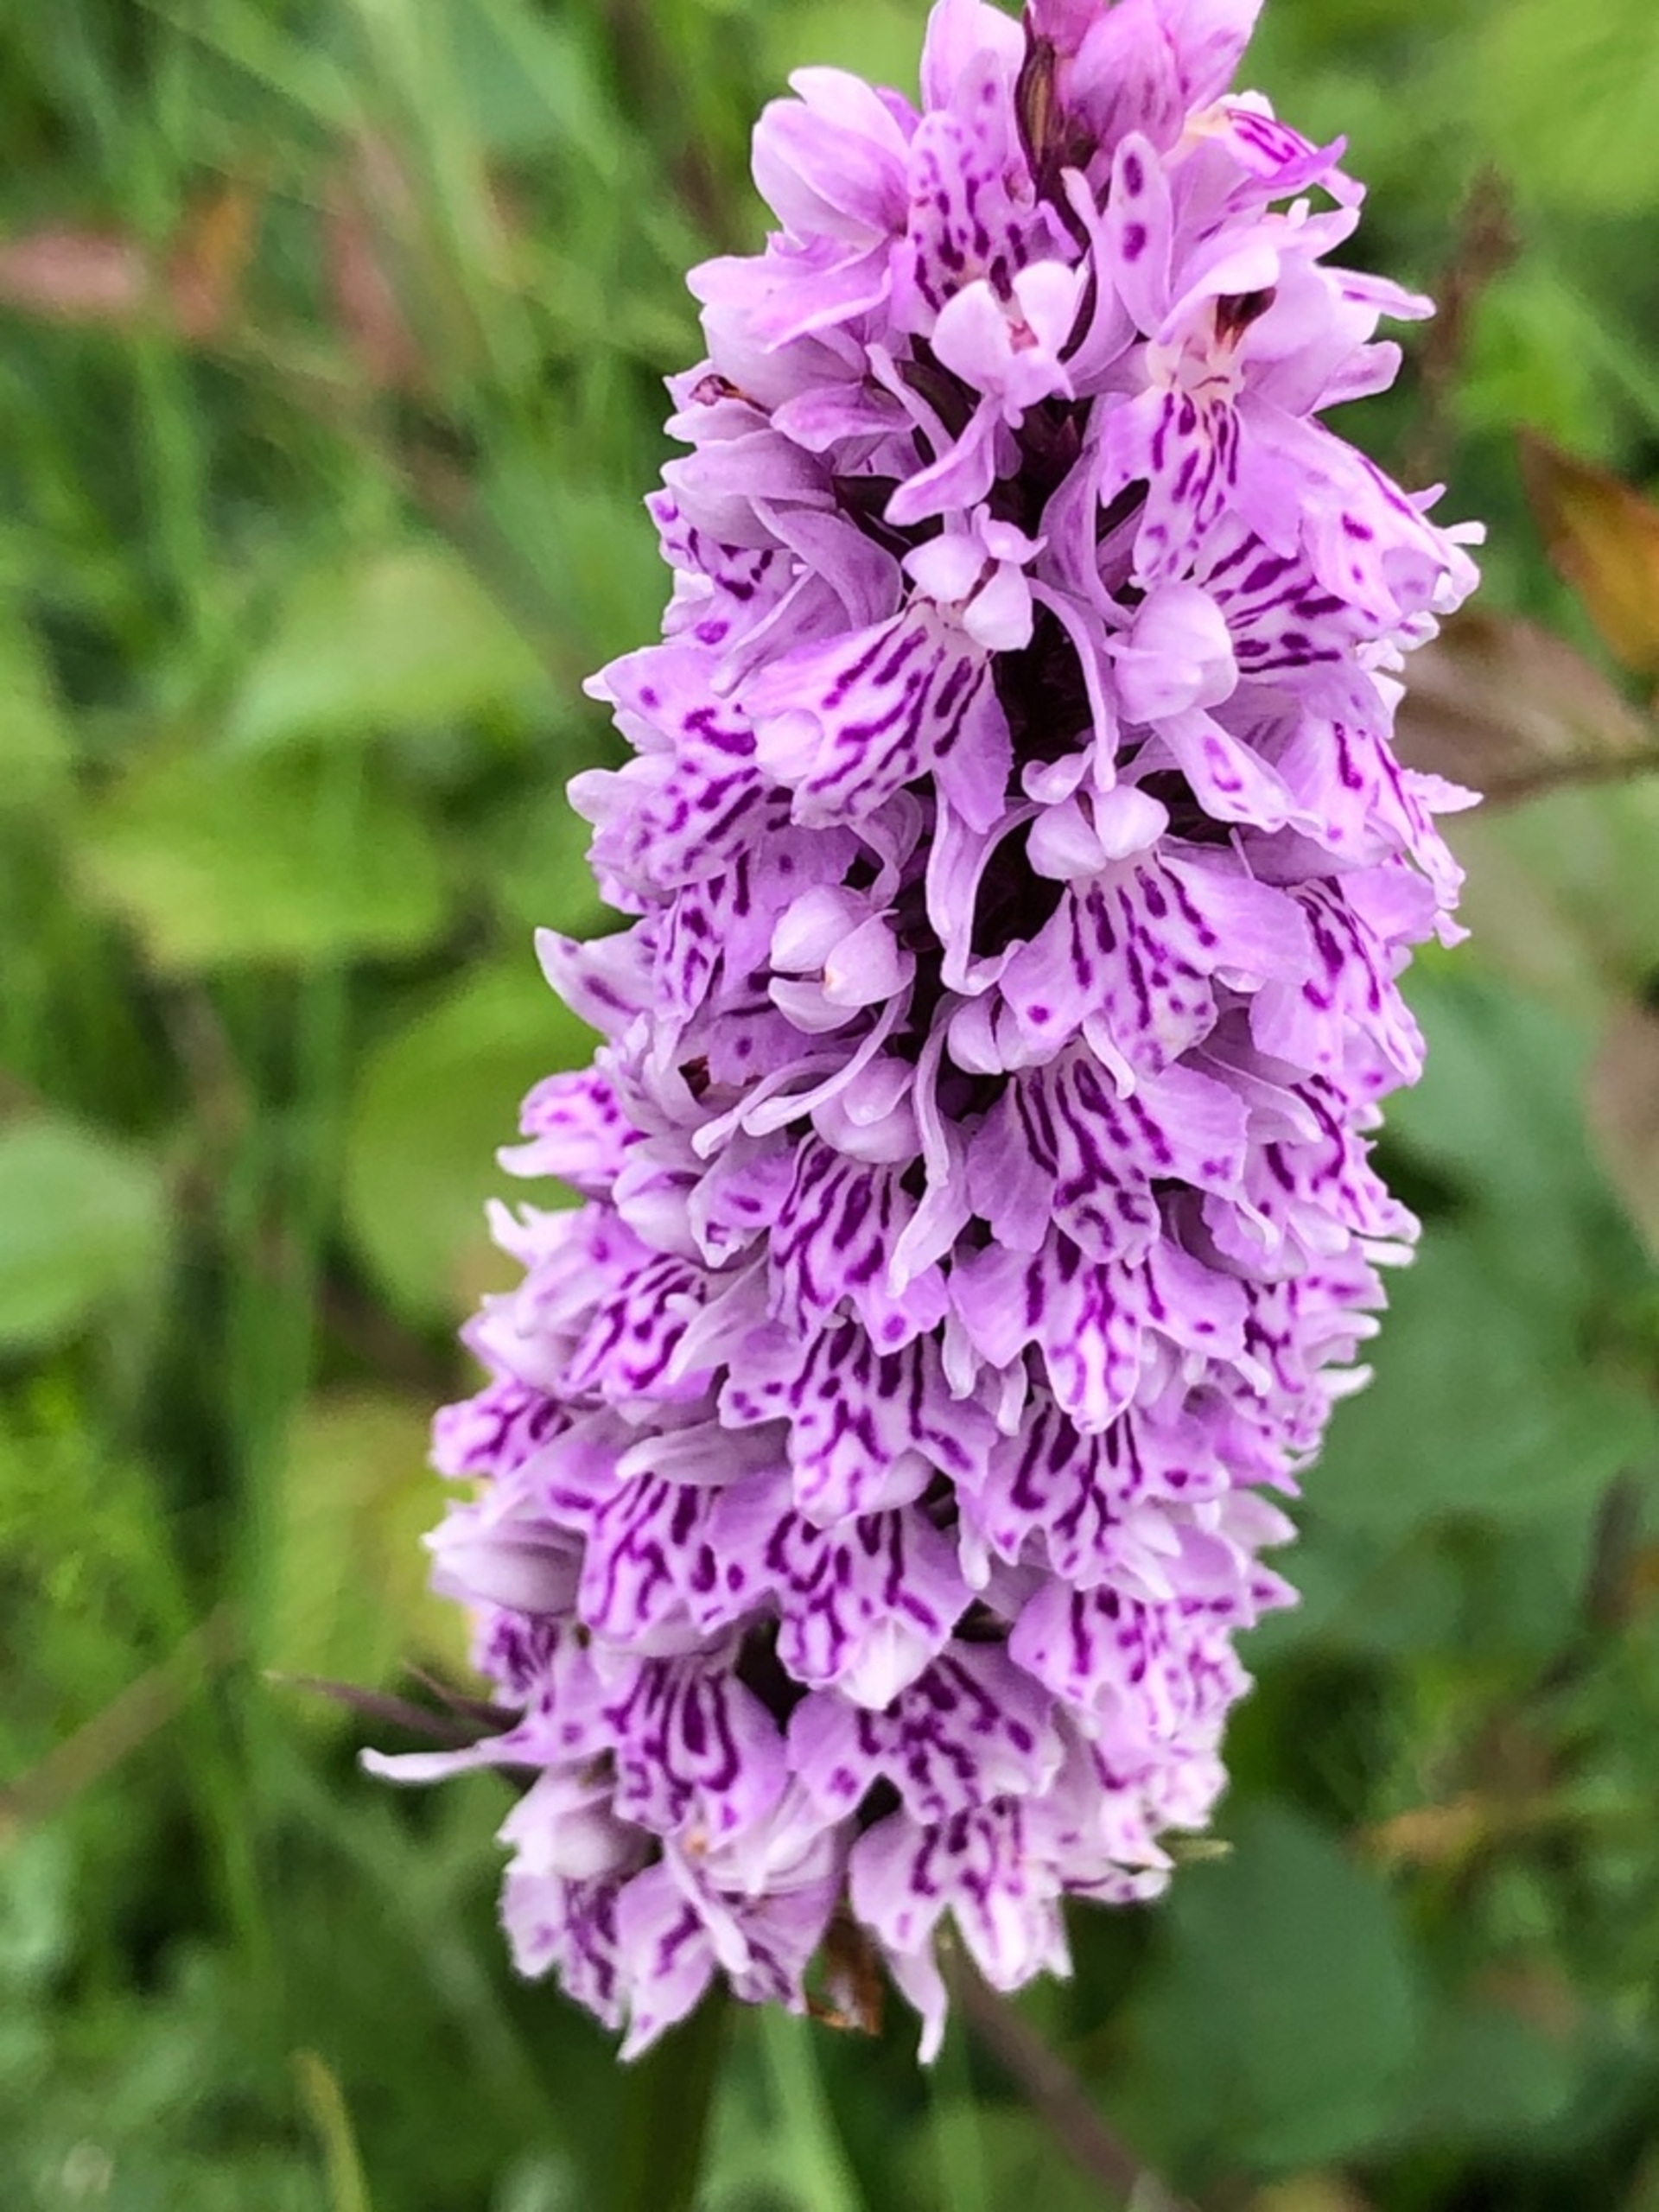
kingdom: Plantae
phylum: Tracheophyta
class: Liliopsida
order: Asparagales
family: Orchidaceae
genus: Dactylorhiza
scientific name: Dactylorhiza maculata
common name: Skov-gøgeurt
